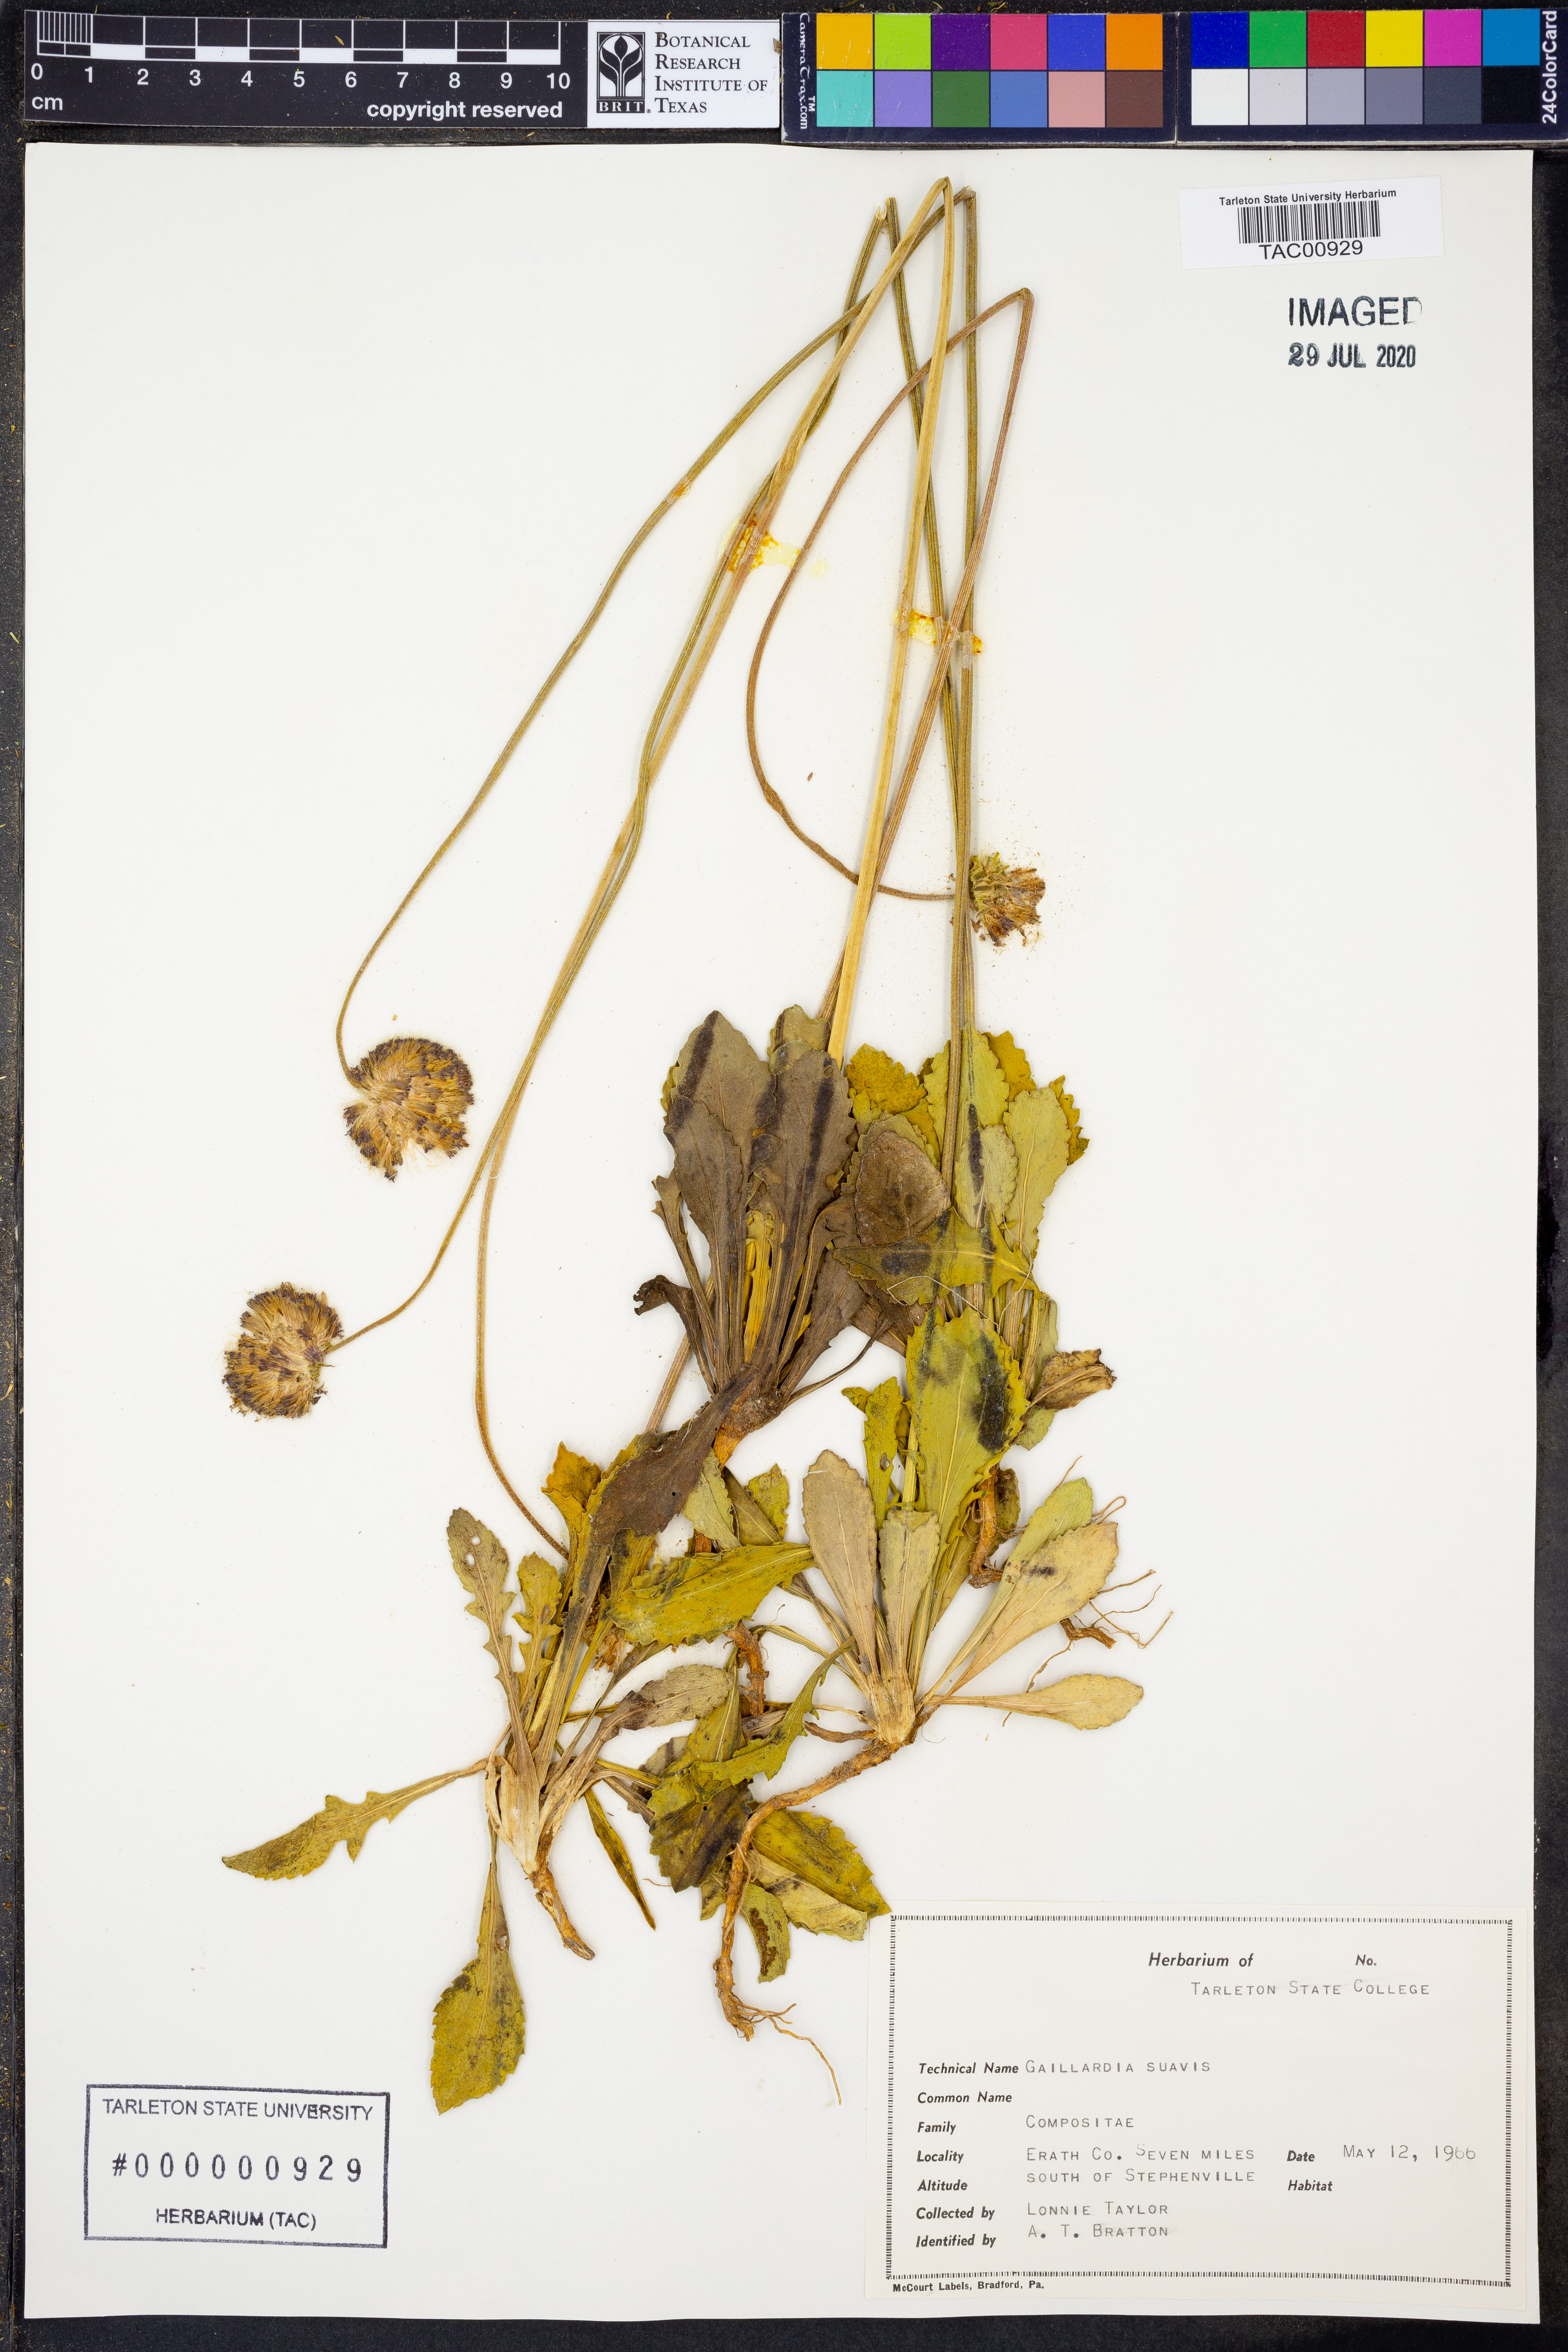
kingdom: Plantae
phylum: Tracheophyta
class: Magnoliopsida
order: Asterales
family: Asteraceae
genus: Gaillardia
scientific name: Gaillardia suavis
